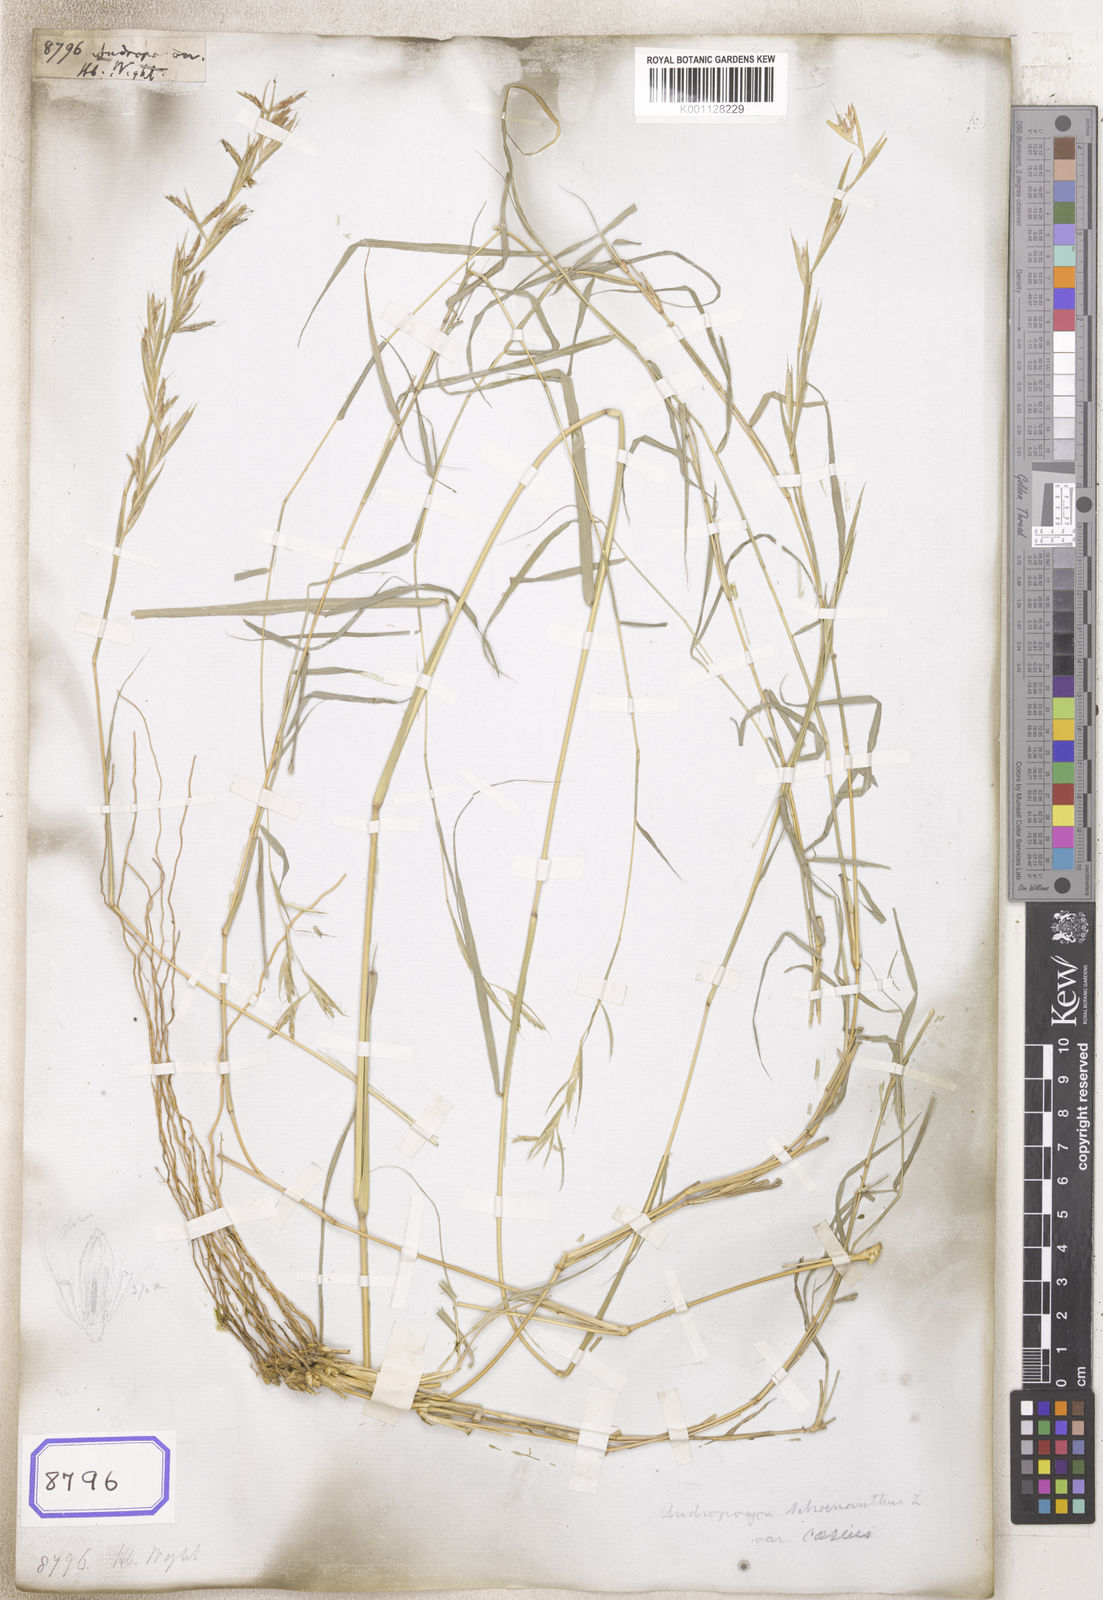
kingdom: Plantae
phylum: Tracheophyta
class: Liliopsida
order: Poales
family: Poaceae
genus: Andropogon
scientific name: Andropogon
